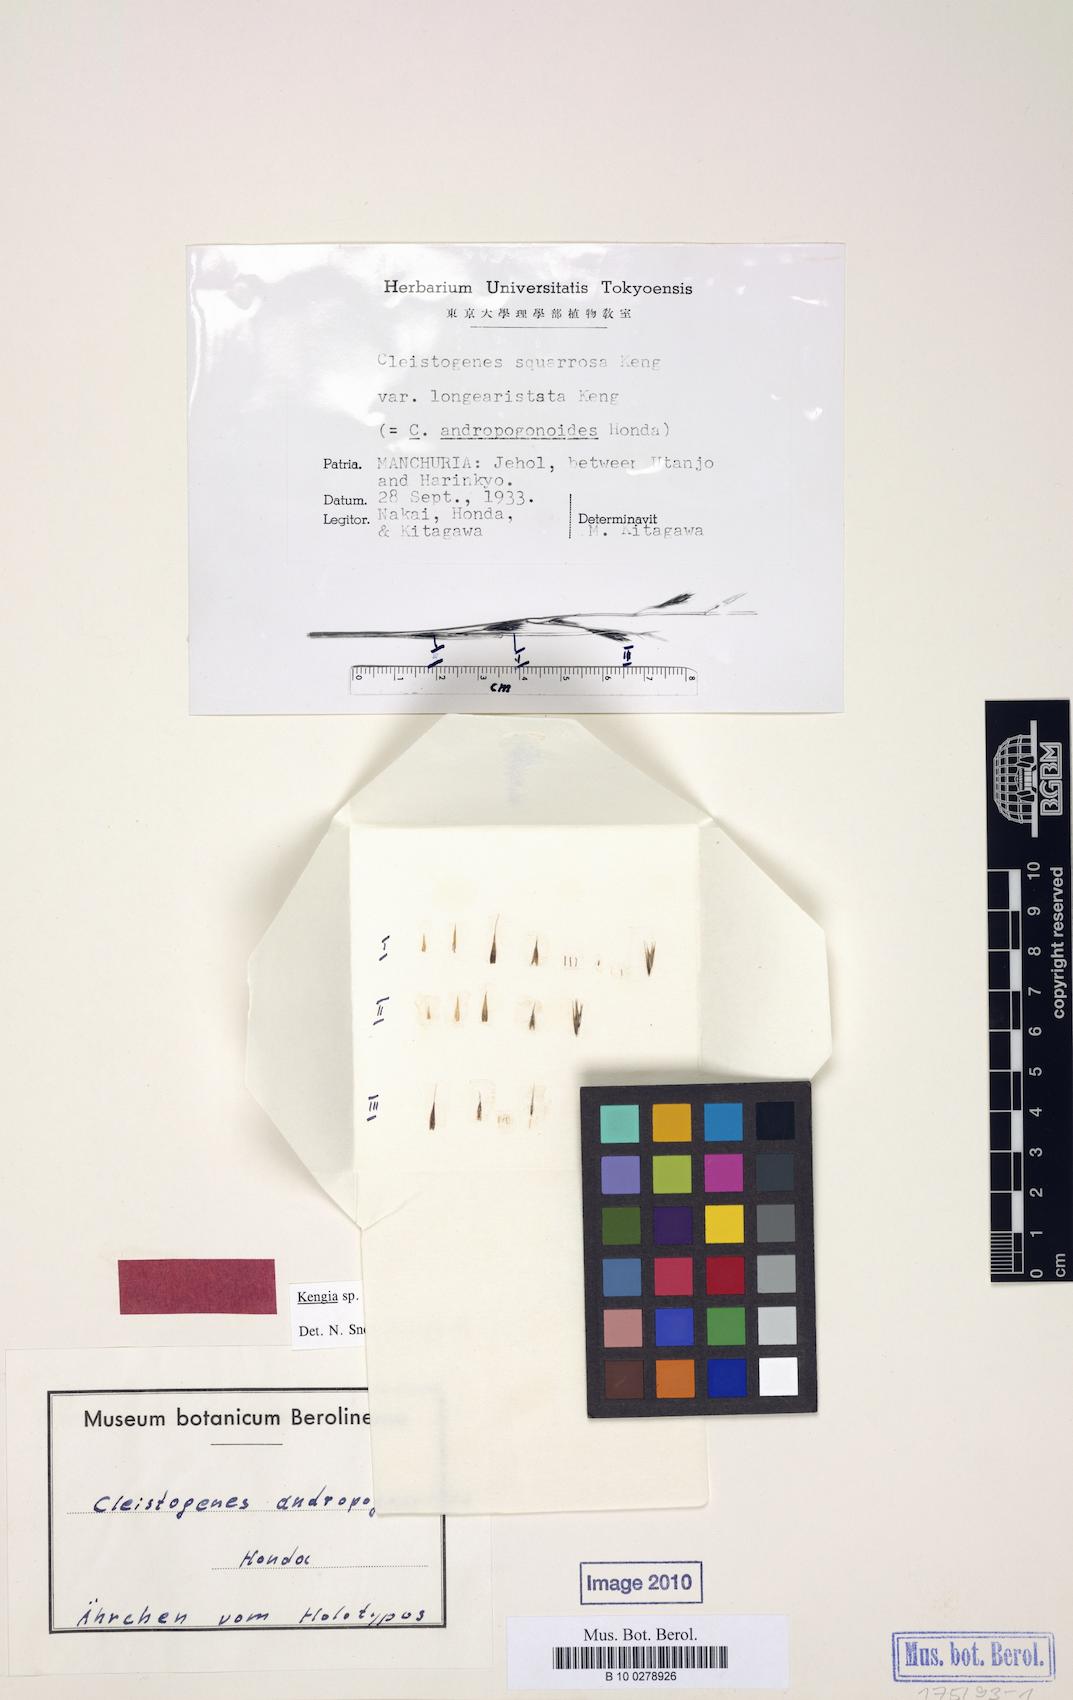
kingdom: Plantae
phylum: Tracheophyta
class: Liliopsida
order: Poales
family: Poaceae
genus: Cleistogenes
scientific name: Cleistogenes squarrosa
